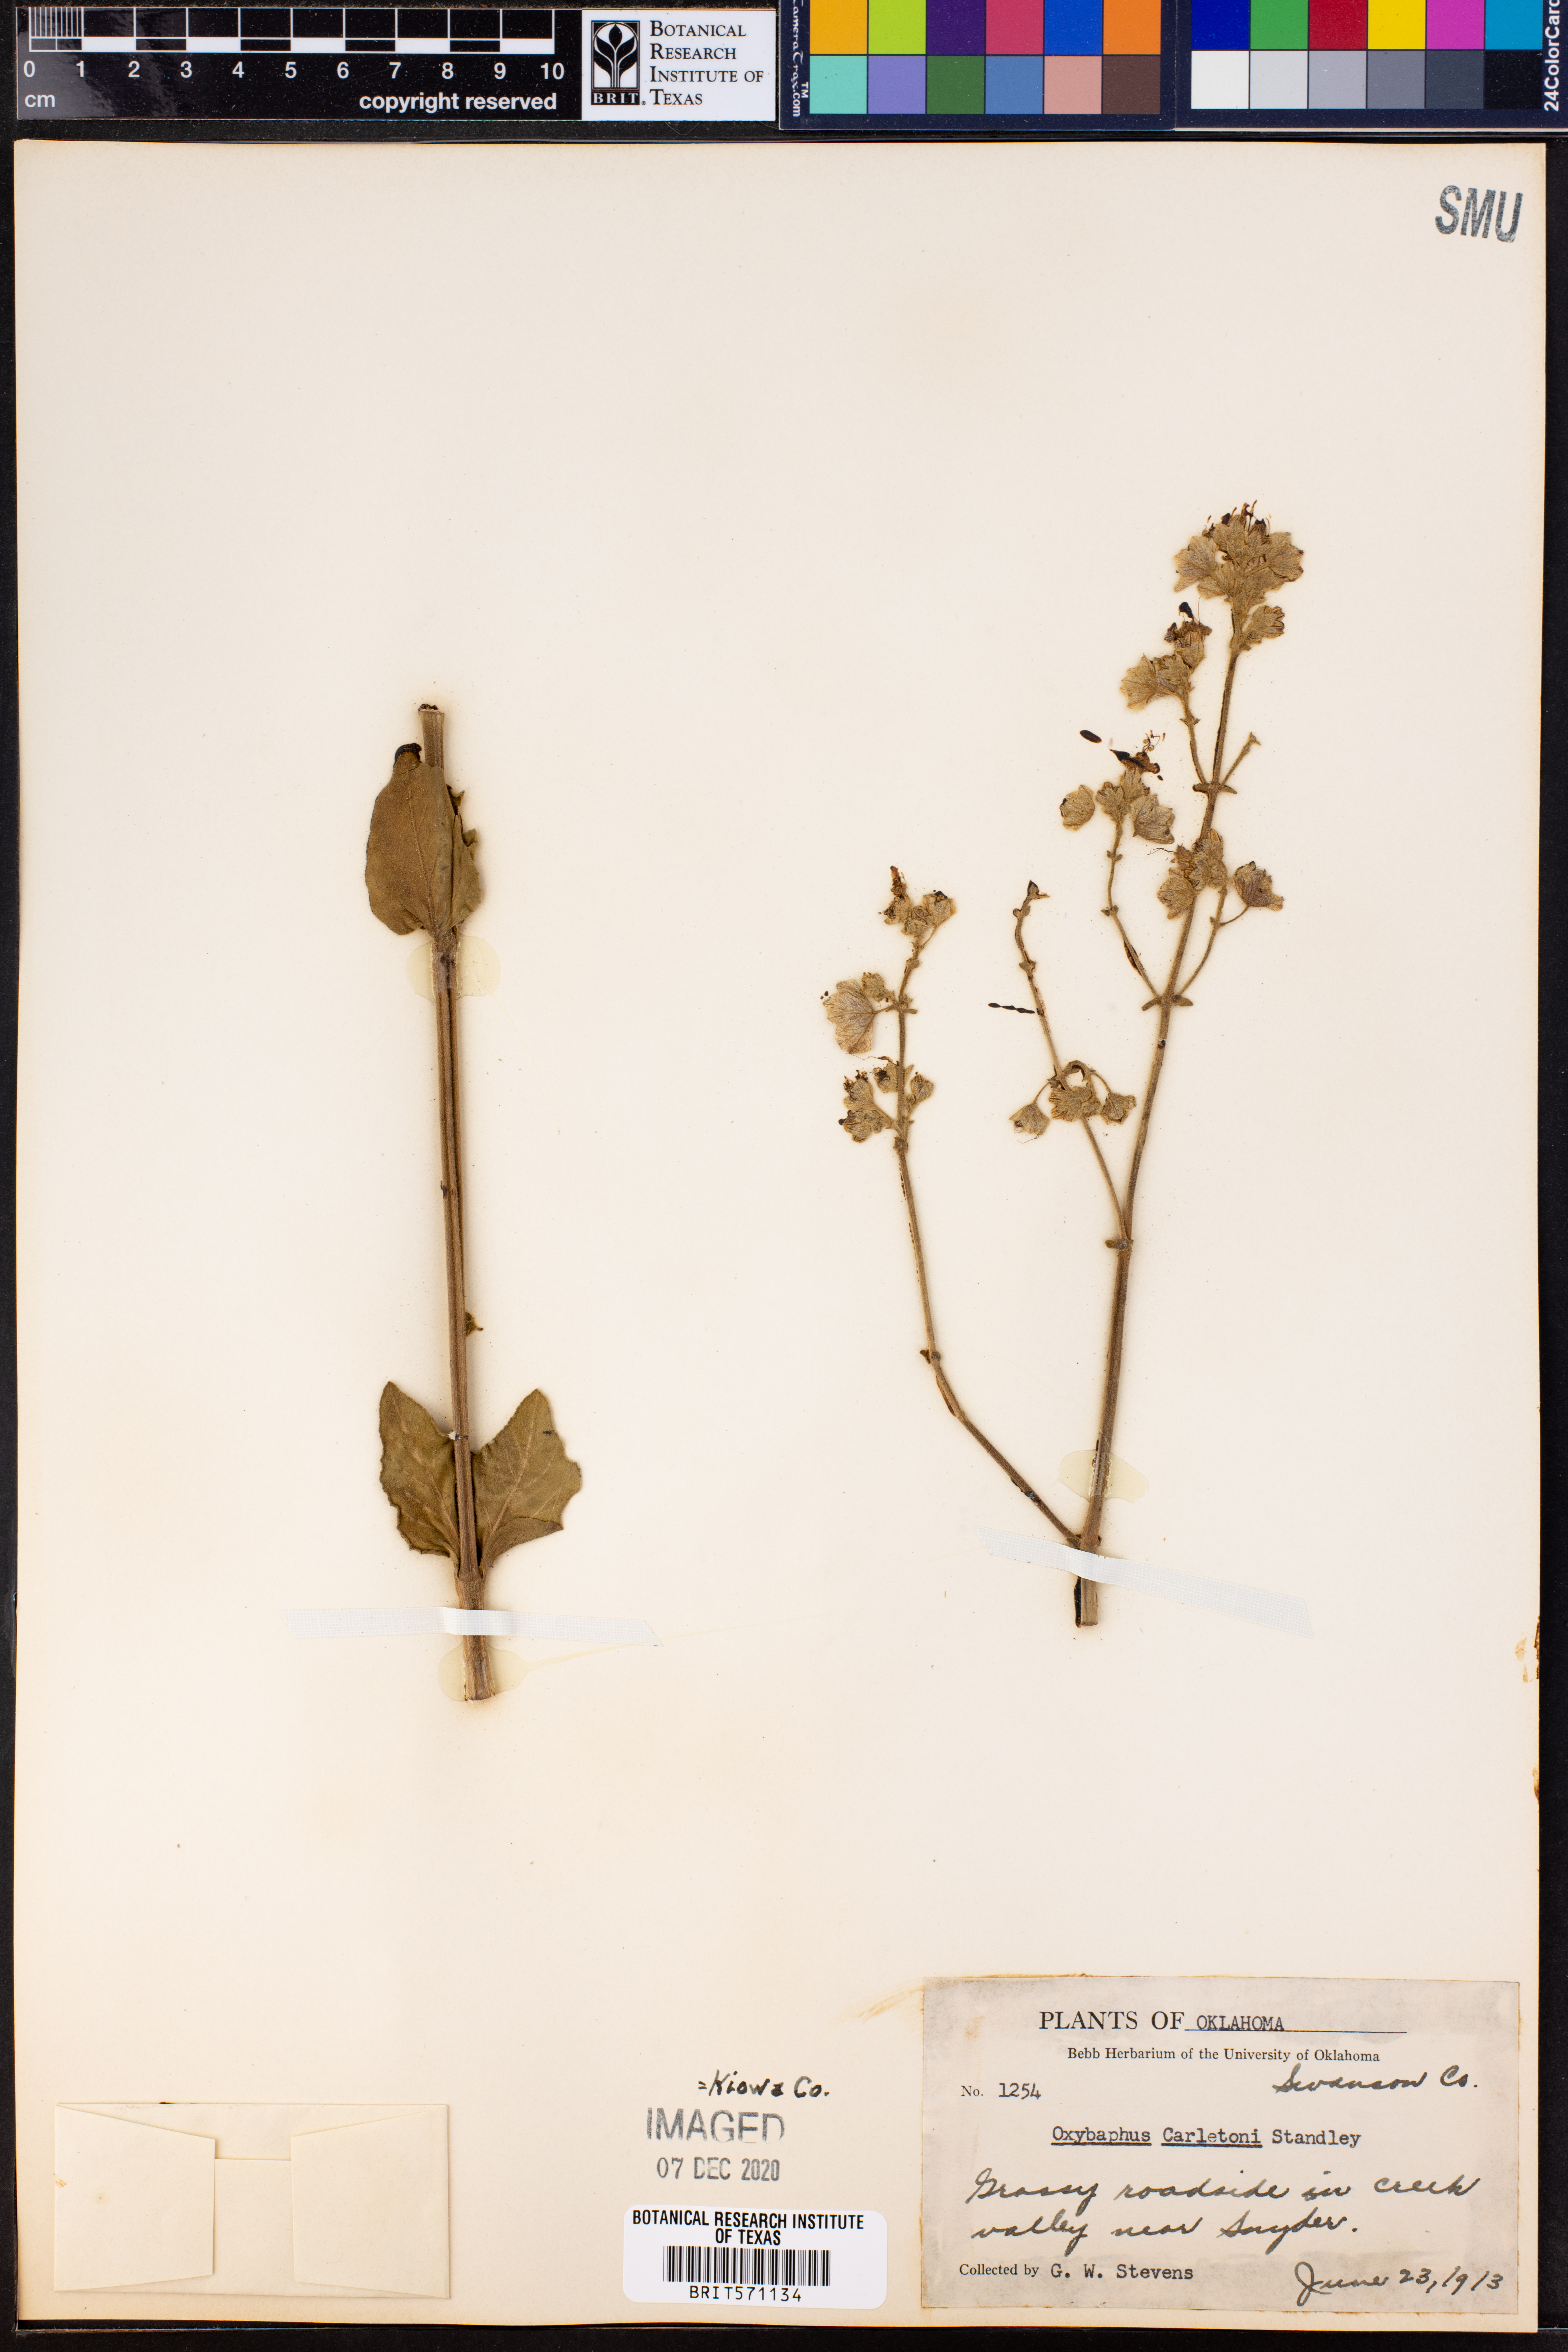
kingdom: Plantae
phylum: Tracheophyta
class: Magnoliopsida
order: Caryophyllales
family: Nyctaginaceae
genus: Mirabilis
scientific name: Mirabilis albida
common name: Hairy four-o'clock
